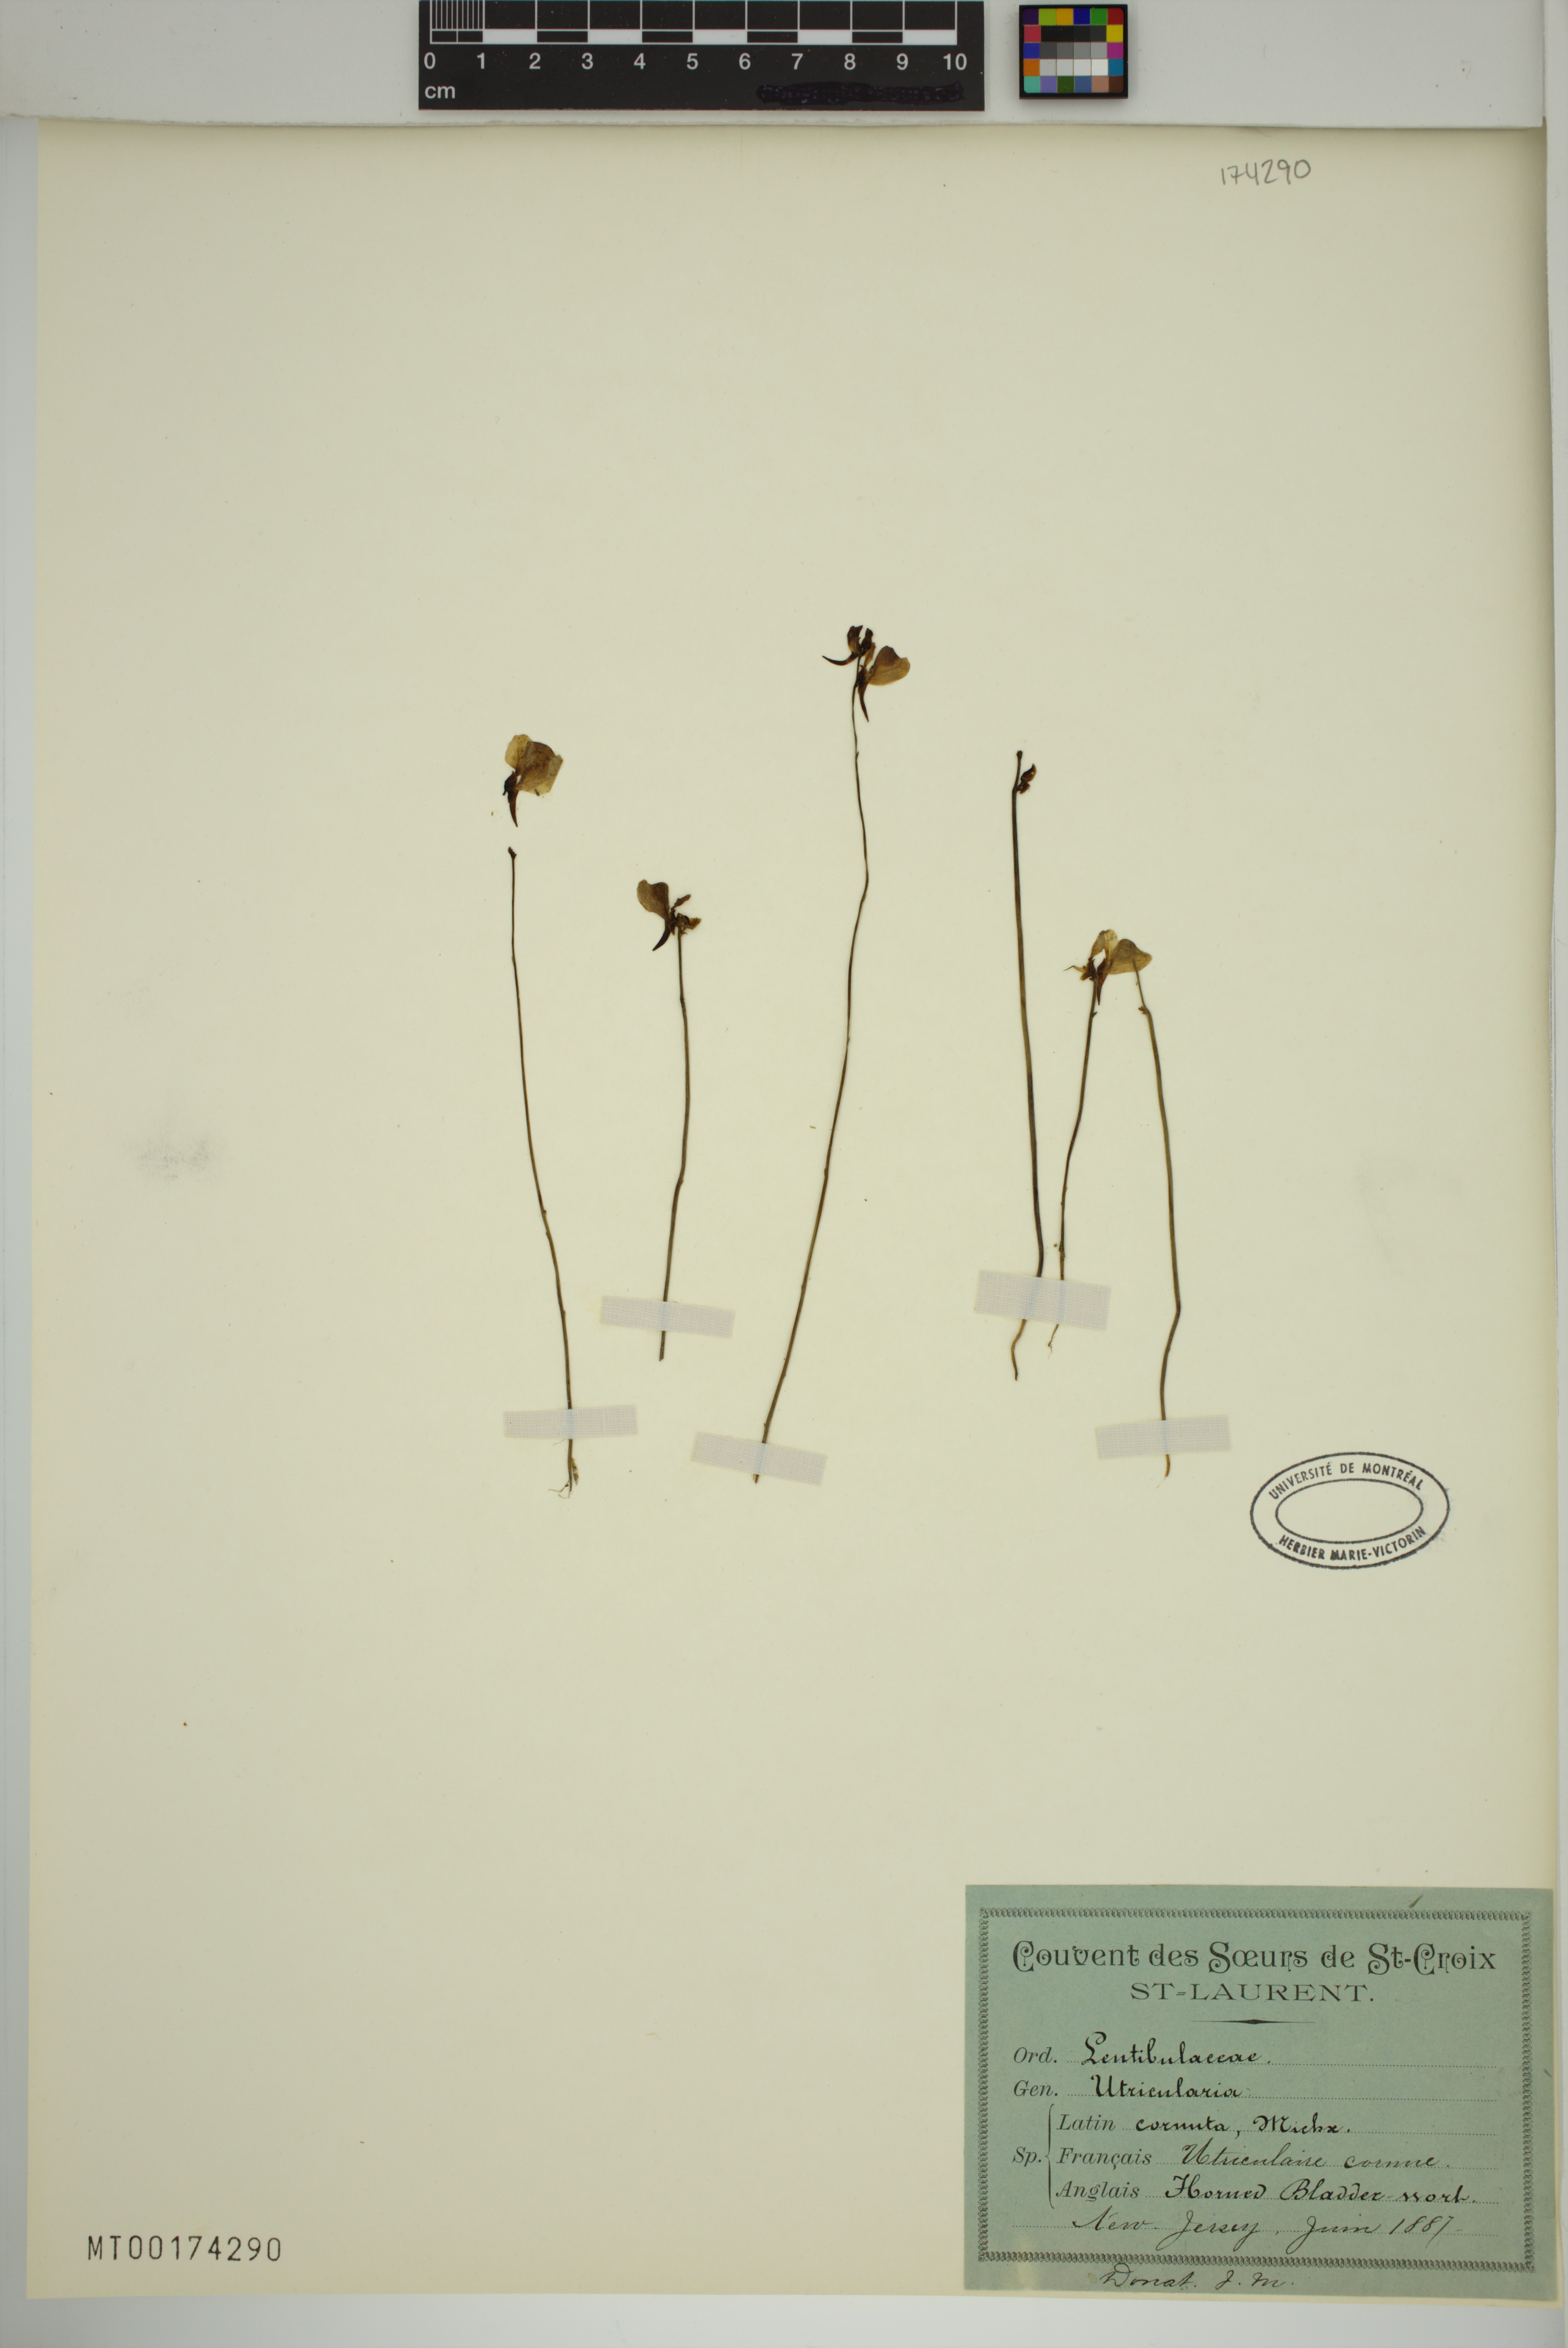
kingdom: Plantae
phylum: Tracheophyta
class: Magnoliopsida
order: Lamiales
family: Lentibulariaceae
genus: Utricularia
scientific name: Utricularia cornuta
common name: Horned bladderwort
